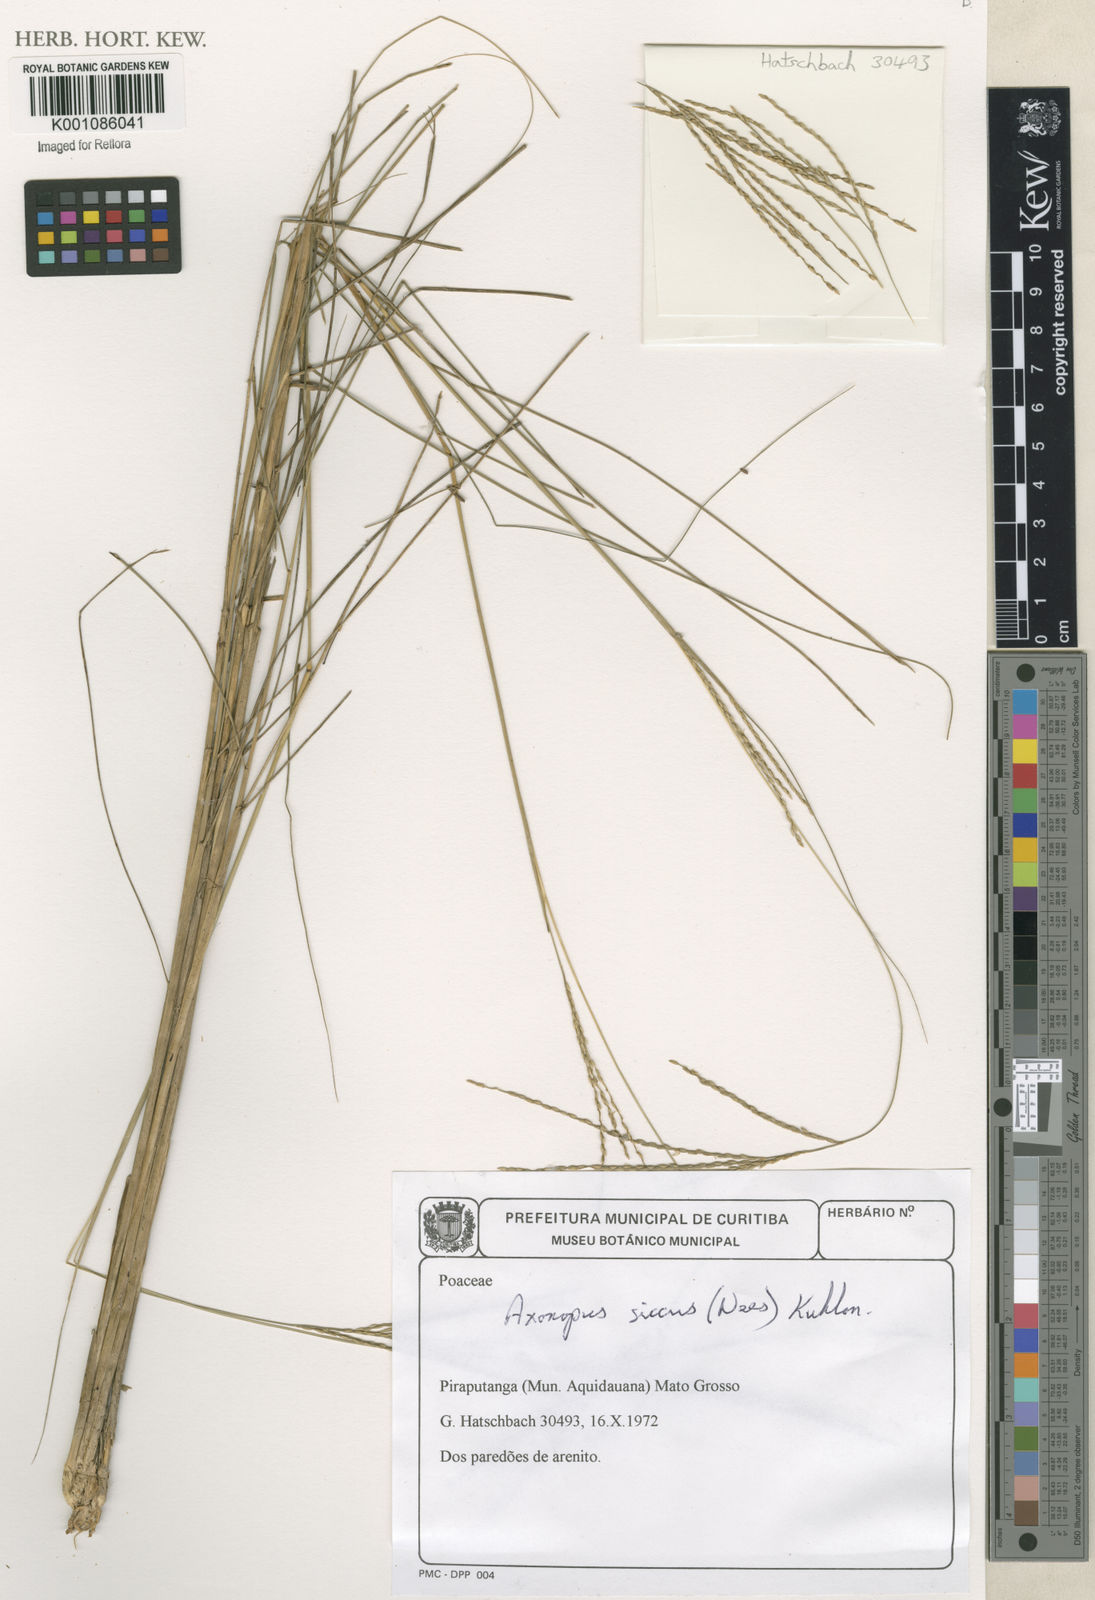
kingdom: Plantae
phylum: Tracheophyta
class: Liliopsida
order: Poales
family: Poaceae
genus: Axonopus
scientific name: Axonopus siccus
